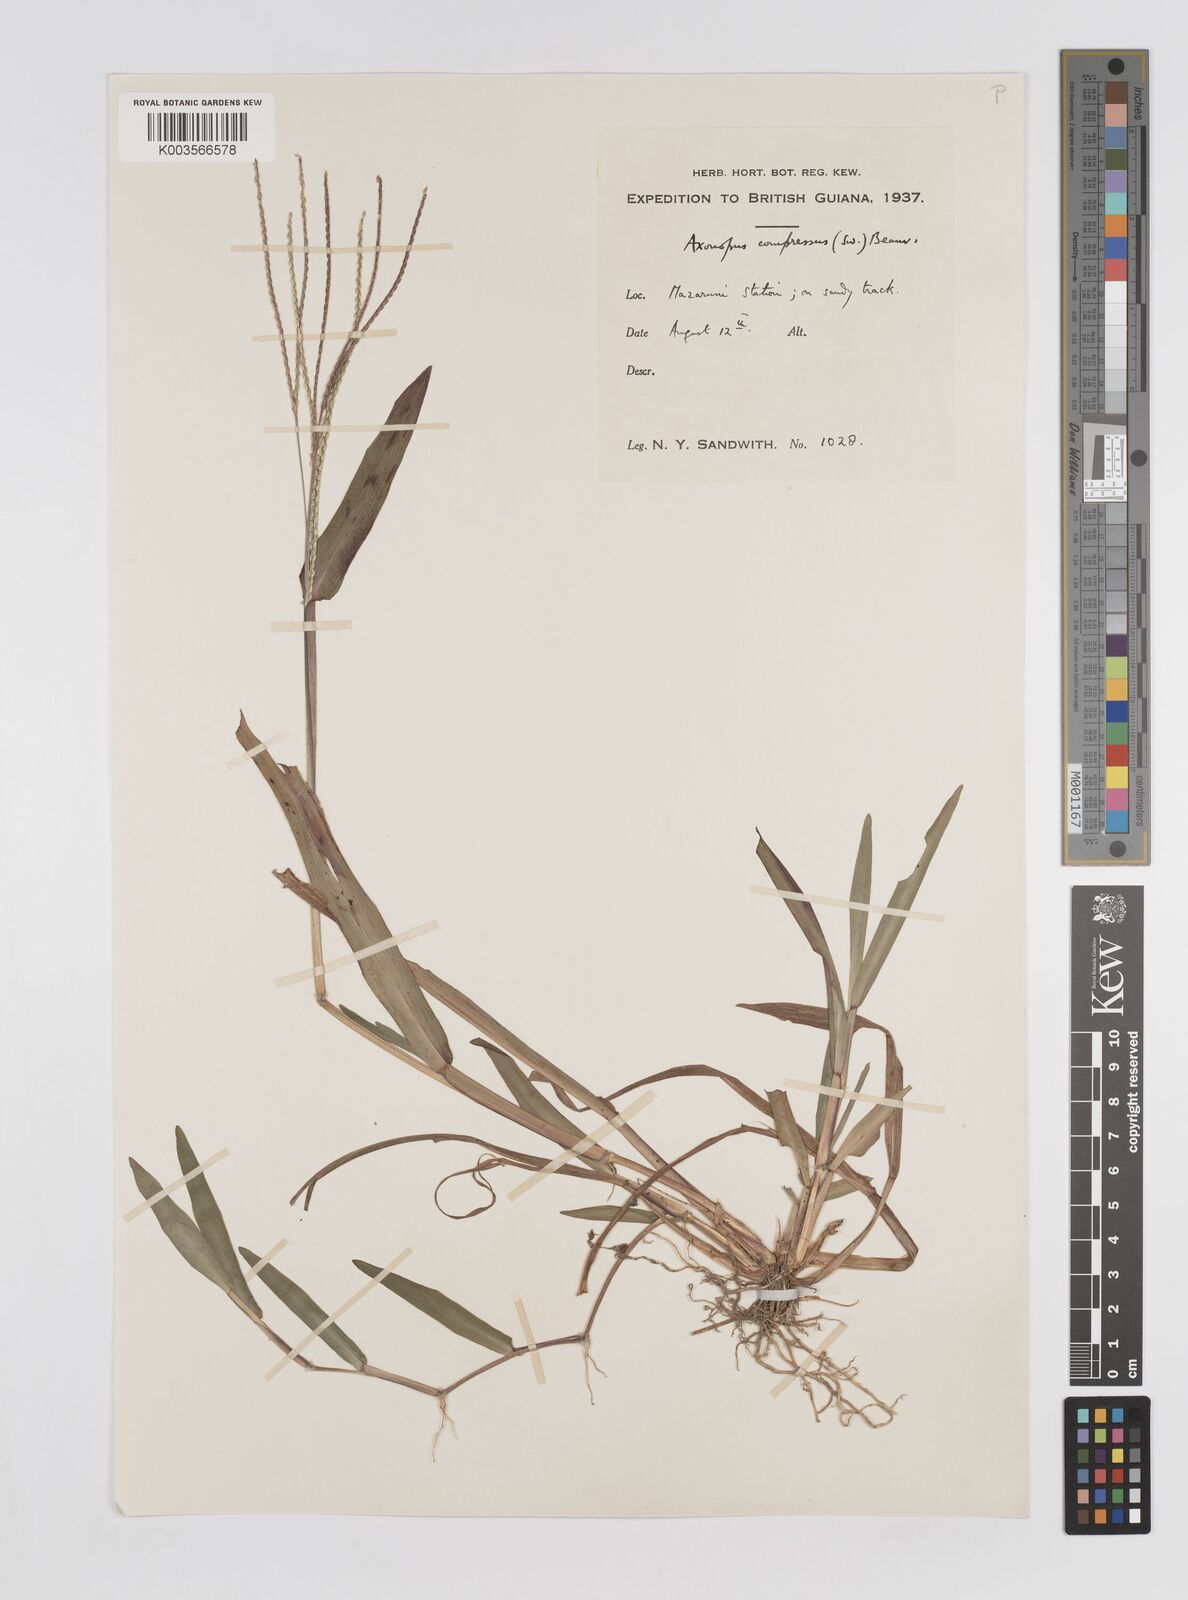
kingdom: Plantae
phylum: Tracheophyta
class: Liliopsida
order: Poales
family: Poaceae
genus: Axonopus
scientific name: Axonopus compressus
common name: American carpet grass
